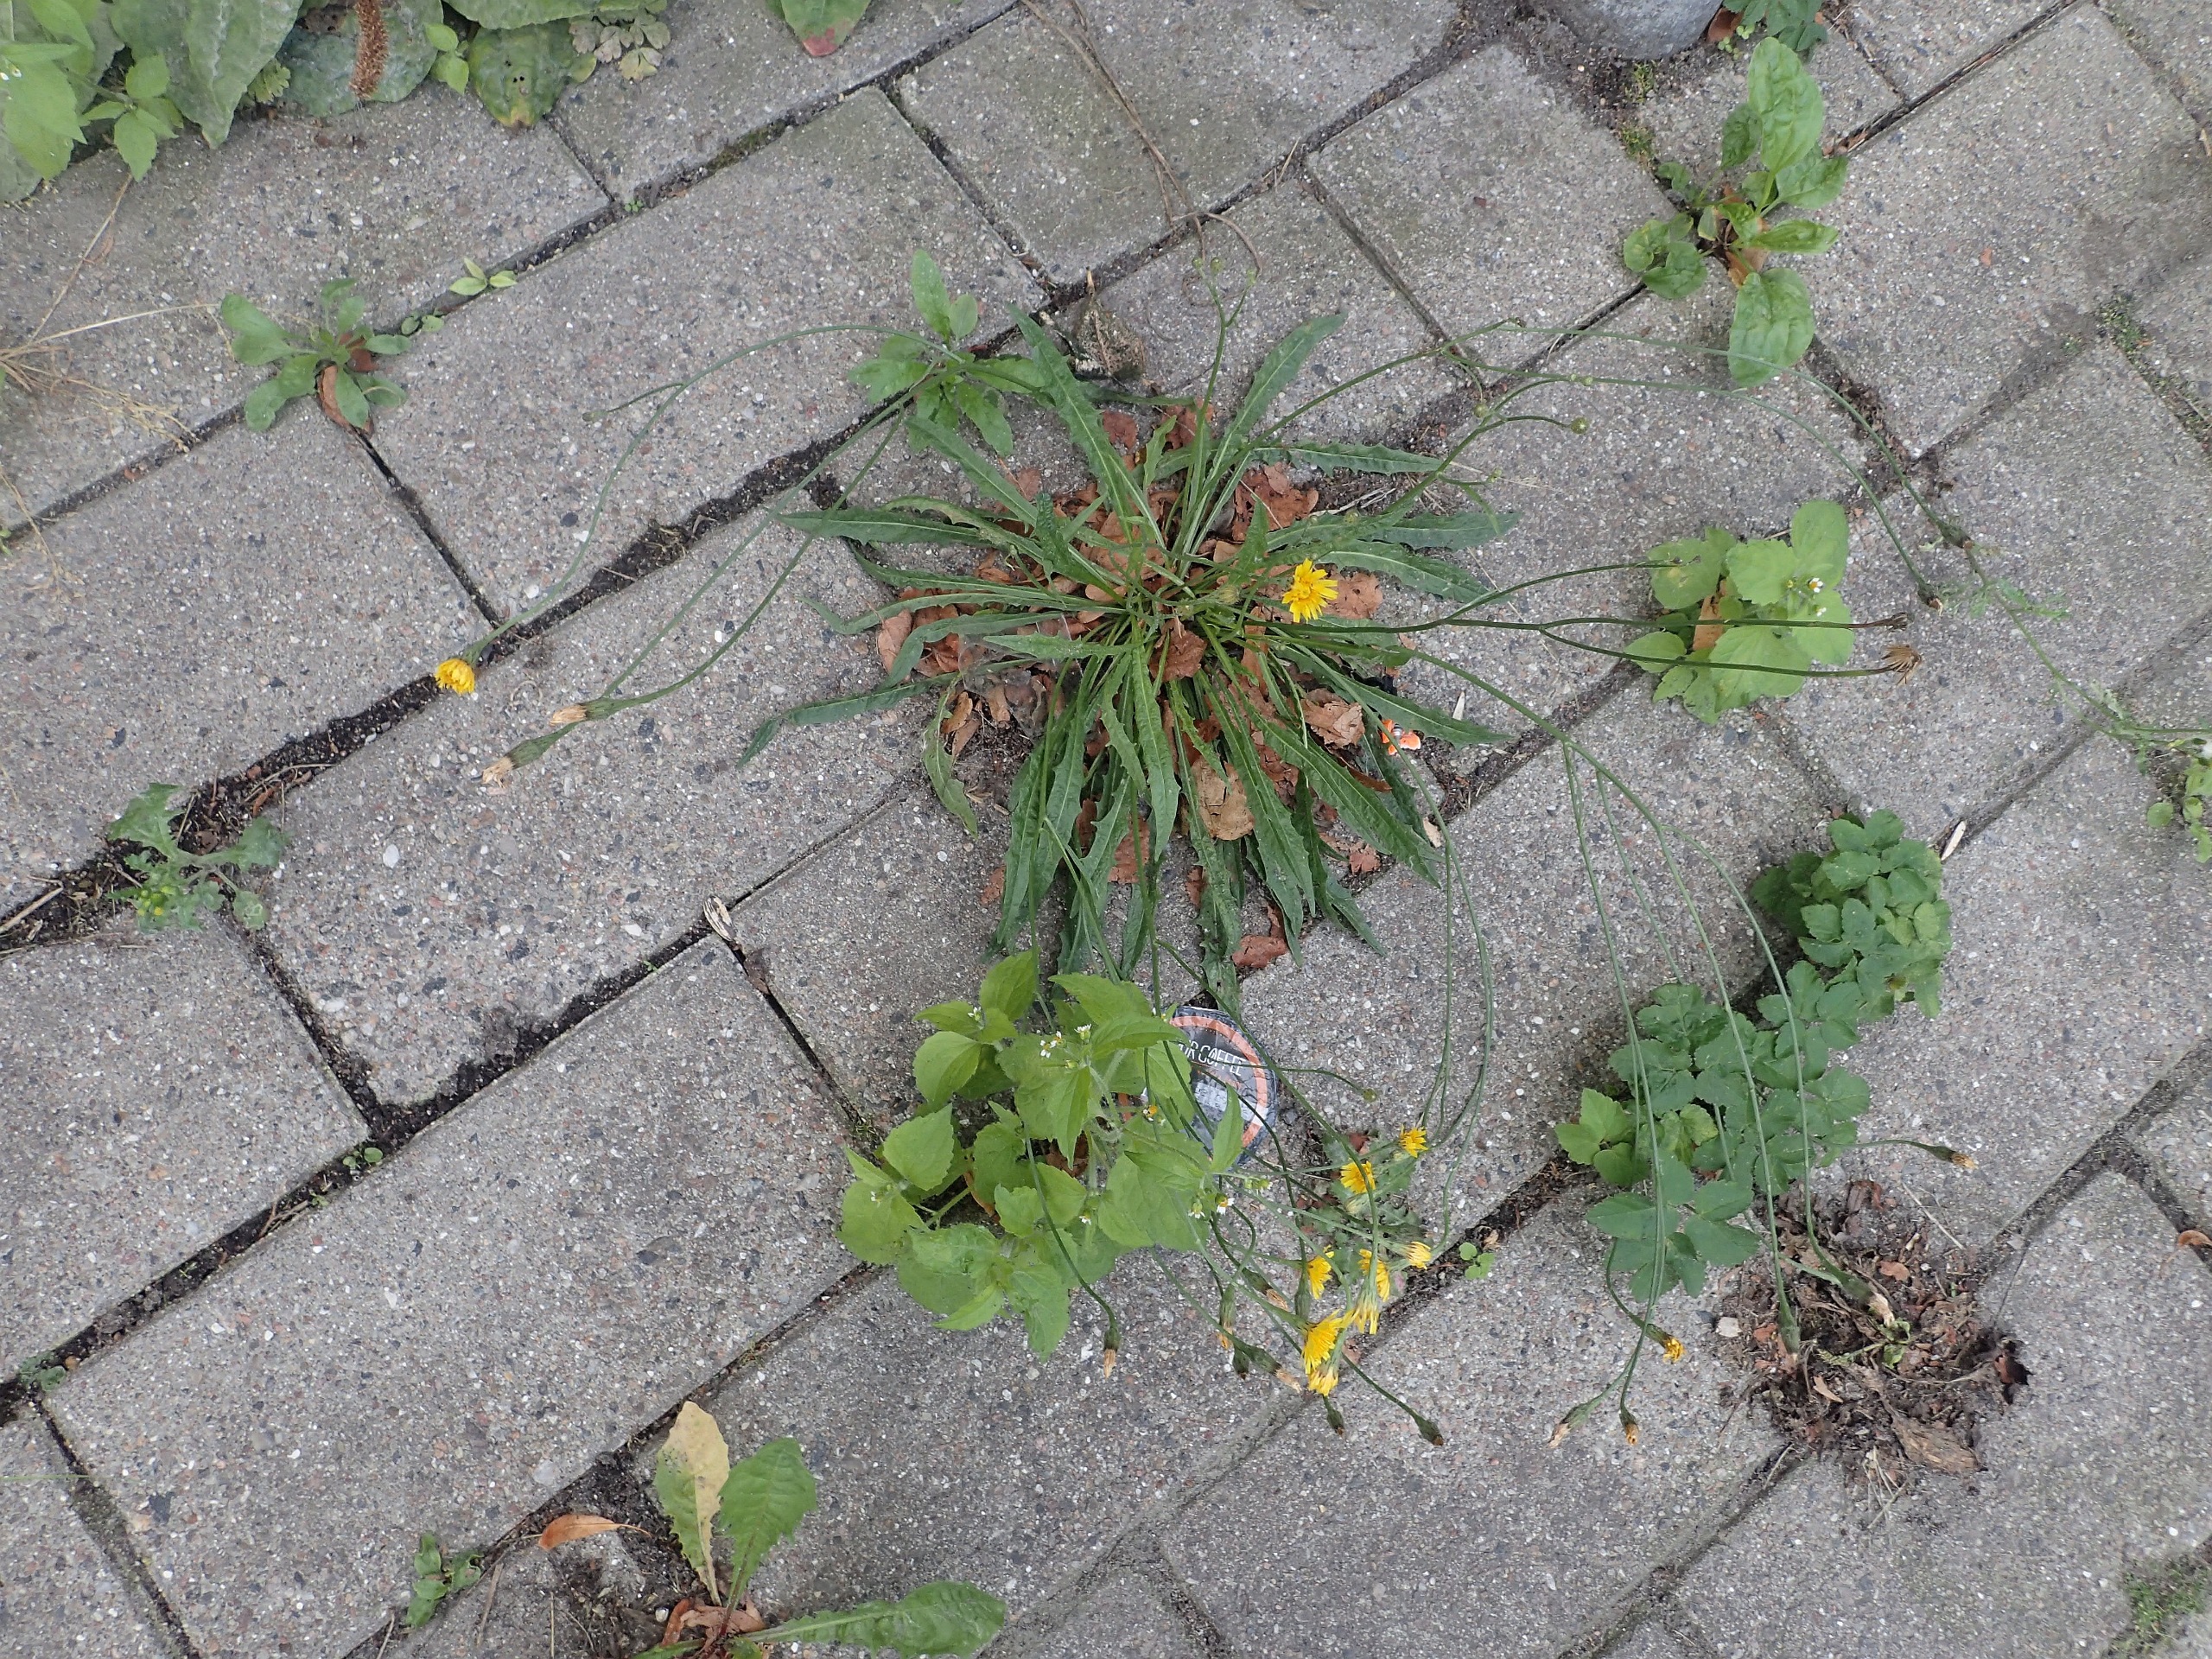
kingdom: Plantae
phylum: Tracheophyta
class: Magnoliopsida
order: Asterales
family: Asteraceae
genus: Scorzoneroides
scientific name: Scorzoneroides autumnalis
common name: Høst-borst
